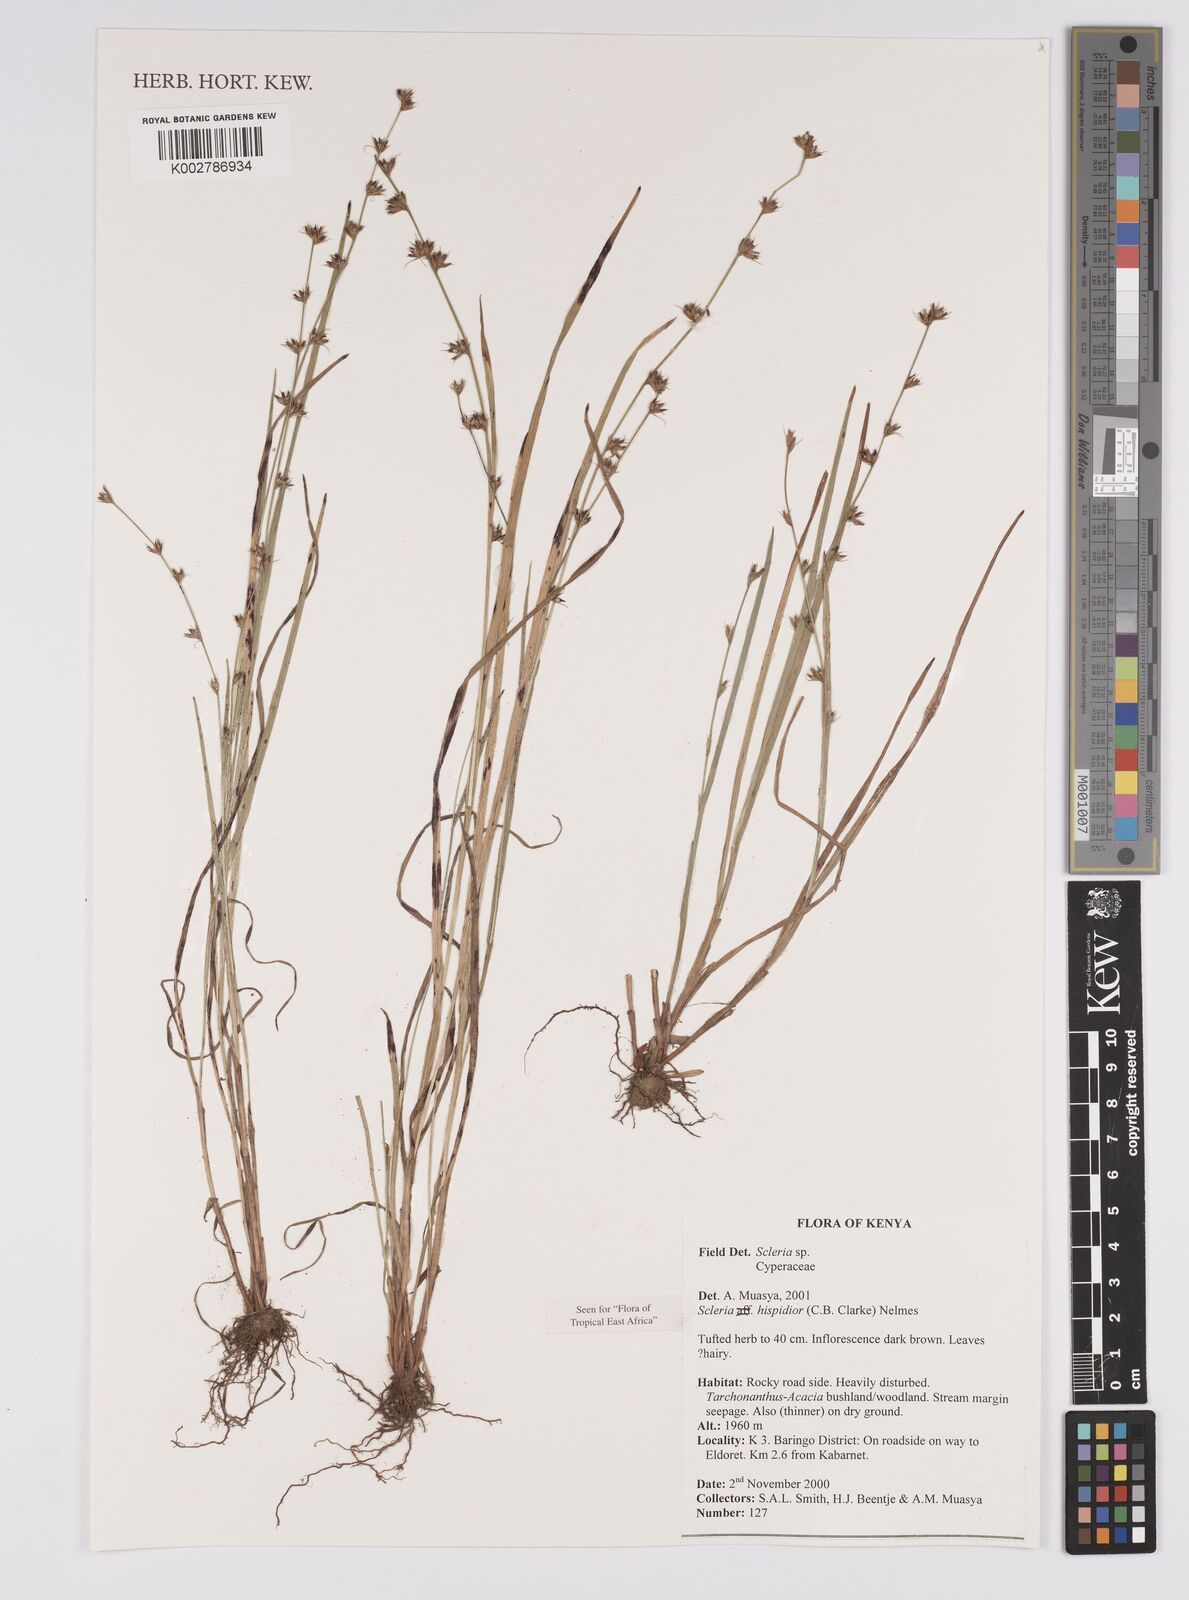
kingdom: Plantae
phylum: Tracheophyta
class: Liliopsida
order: Poales
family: Cyperaceae
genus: Scleria
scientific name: Scleria hispidula
